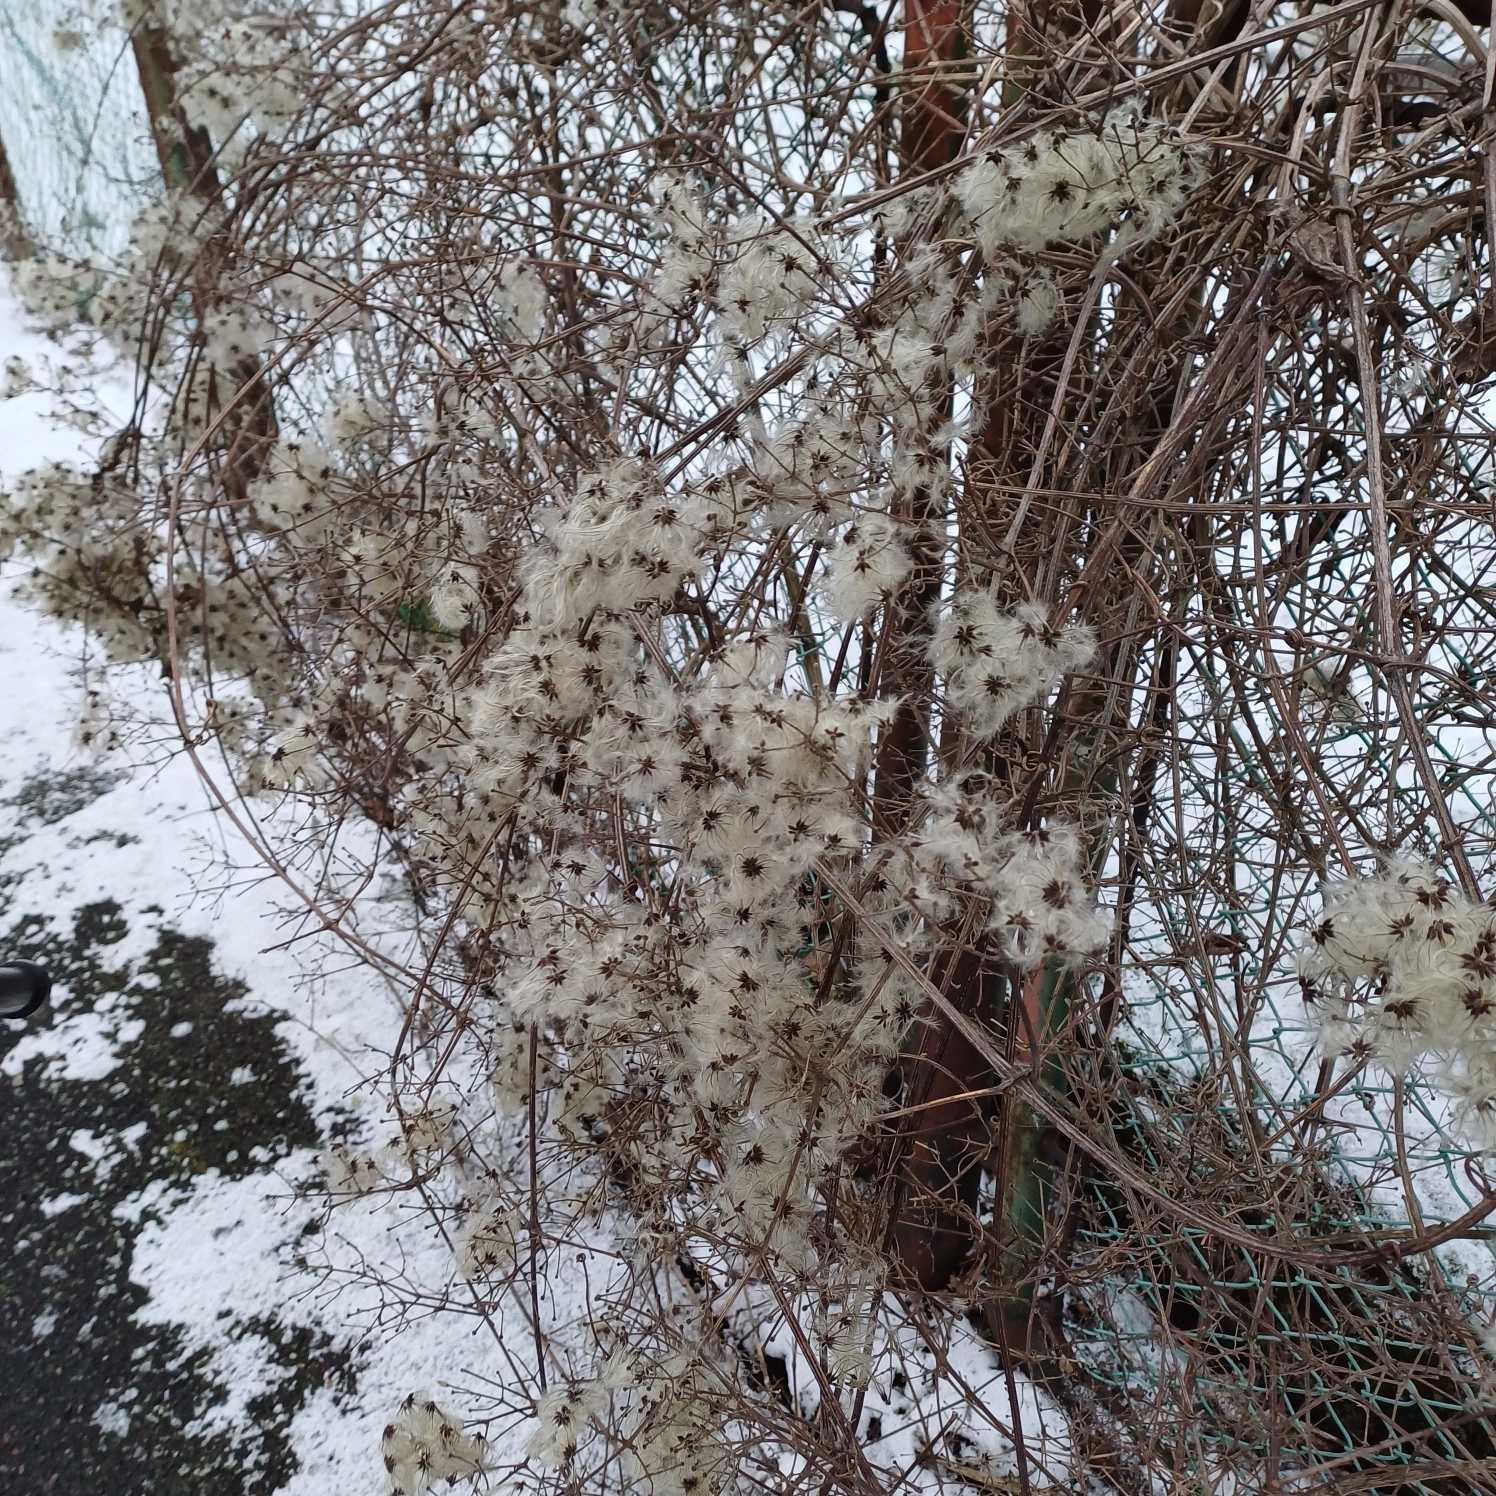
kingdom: Plantae
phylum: Tracheophyta
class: Magnoliopsida
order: Ranunculales
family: Ranunculaceae
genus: Clematis
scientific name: Clematis vitalba
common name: Skovranke
